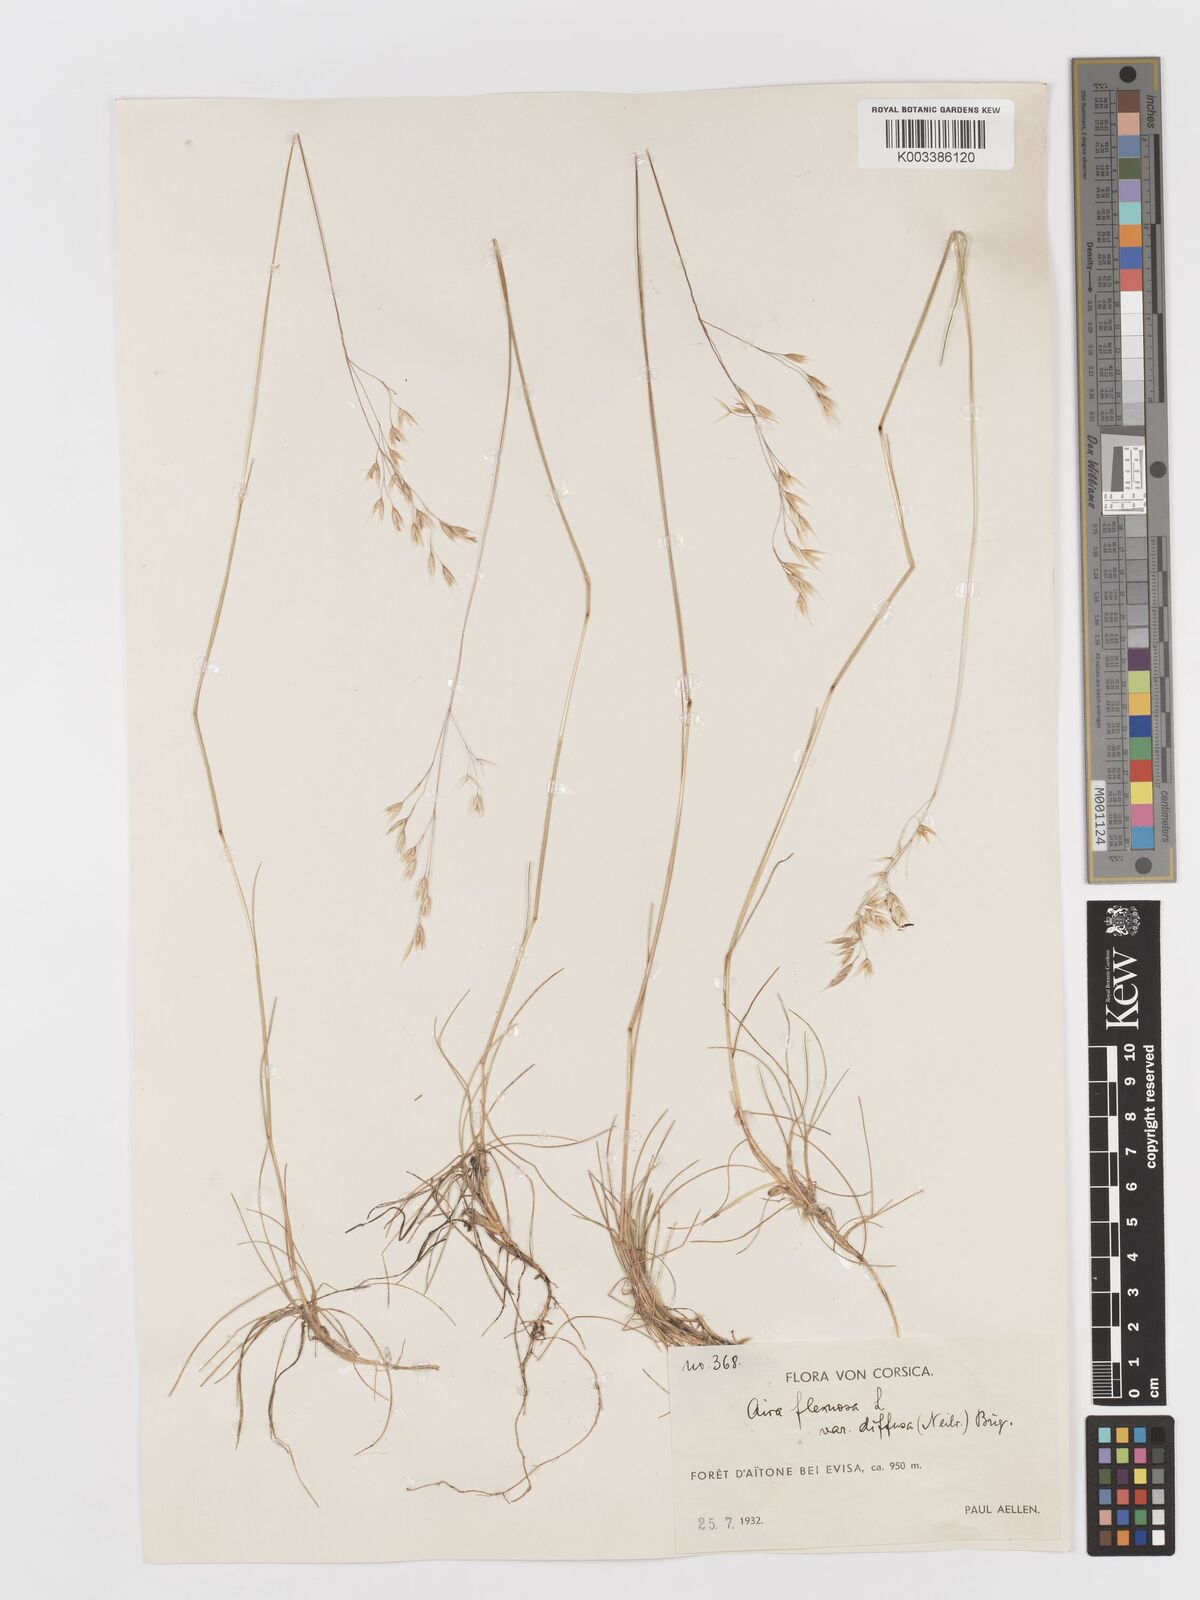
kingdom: Plantae
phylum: Tracheophyta
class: Liliopsida
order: Poales
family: Poaceae
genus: Avenella
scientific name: Avenella flexuosa
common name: Wavy hairgrass
